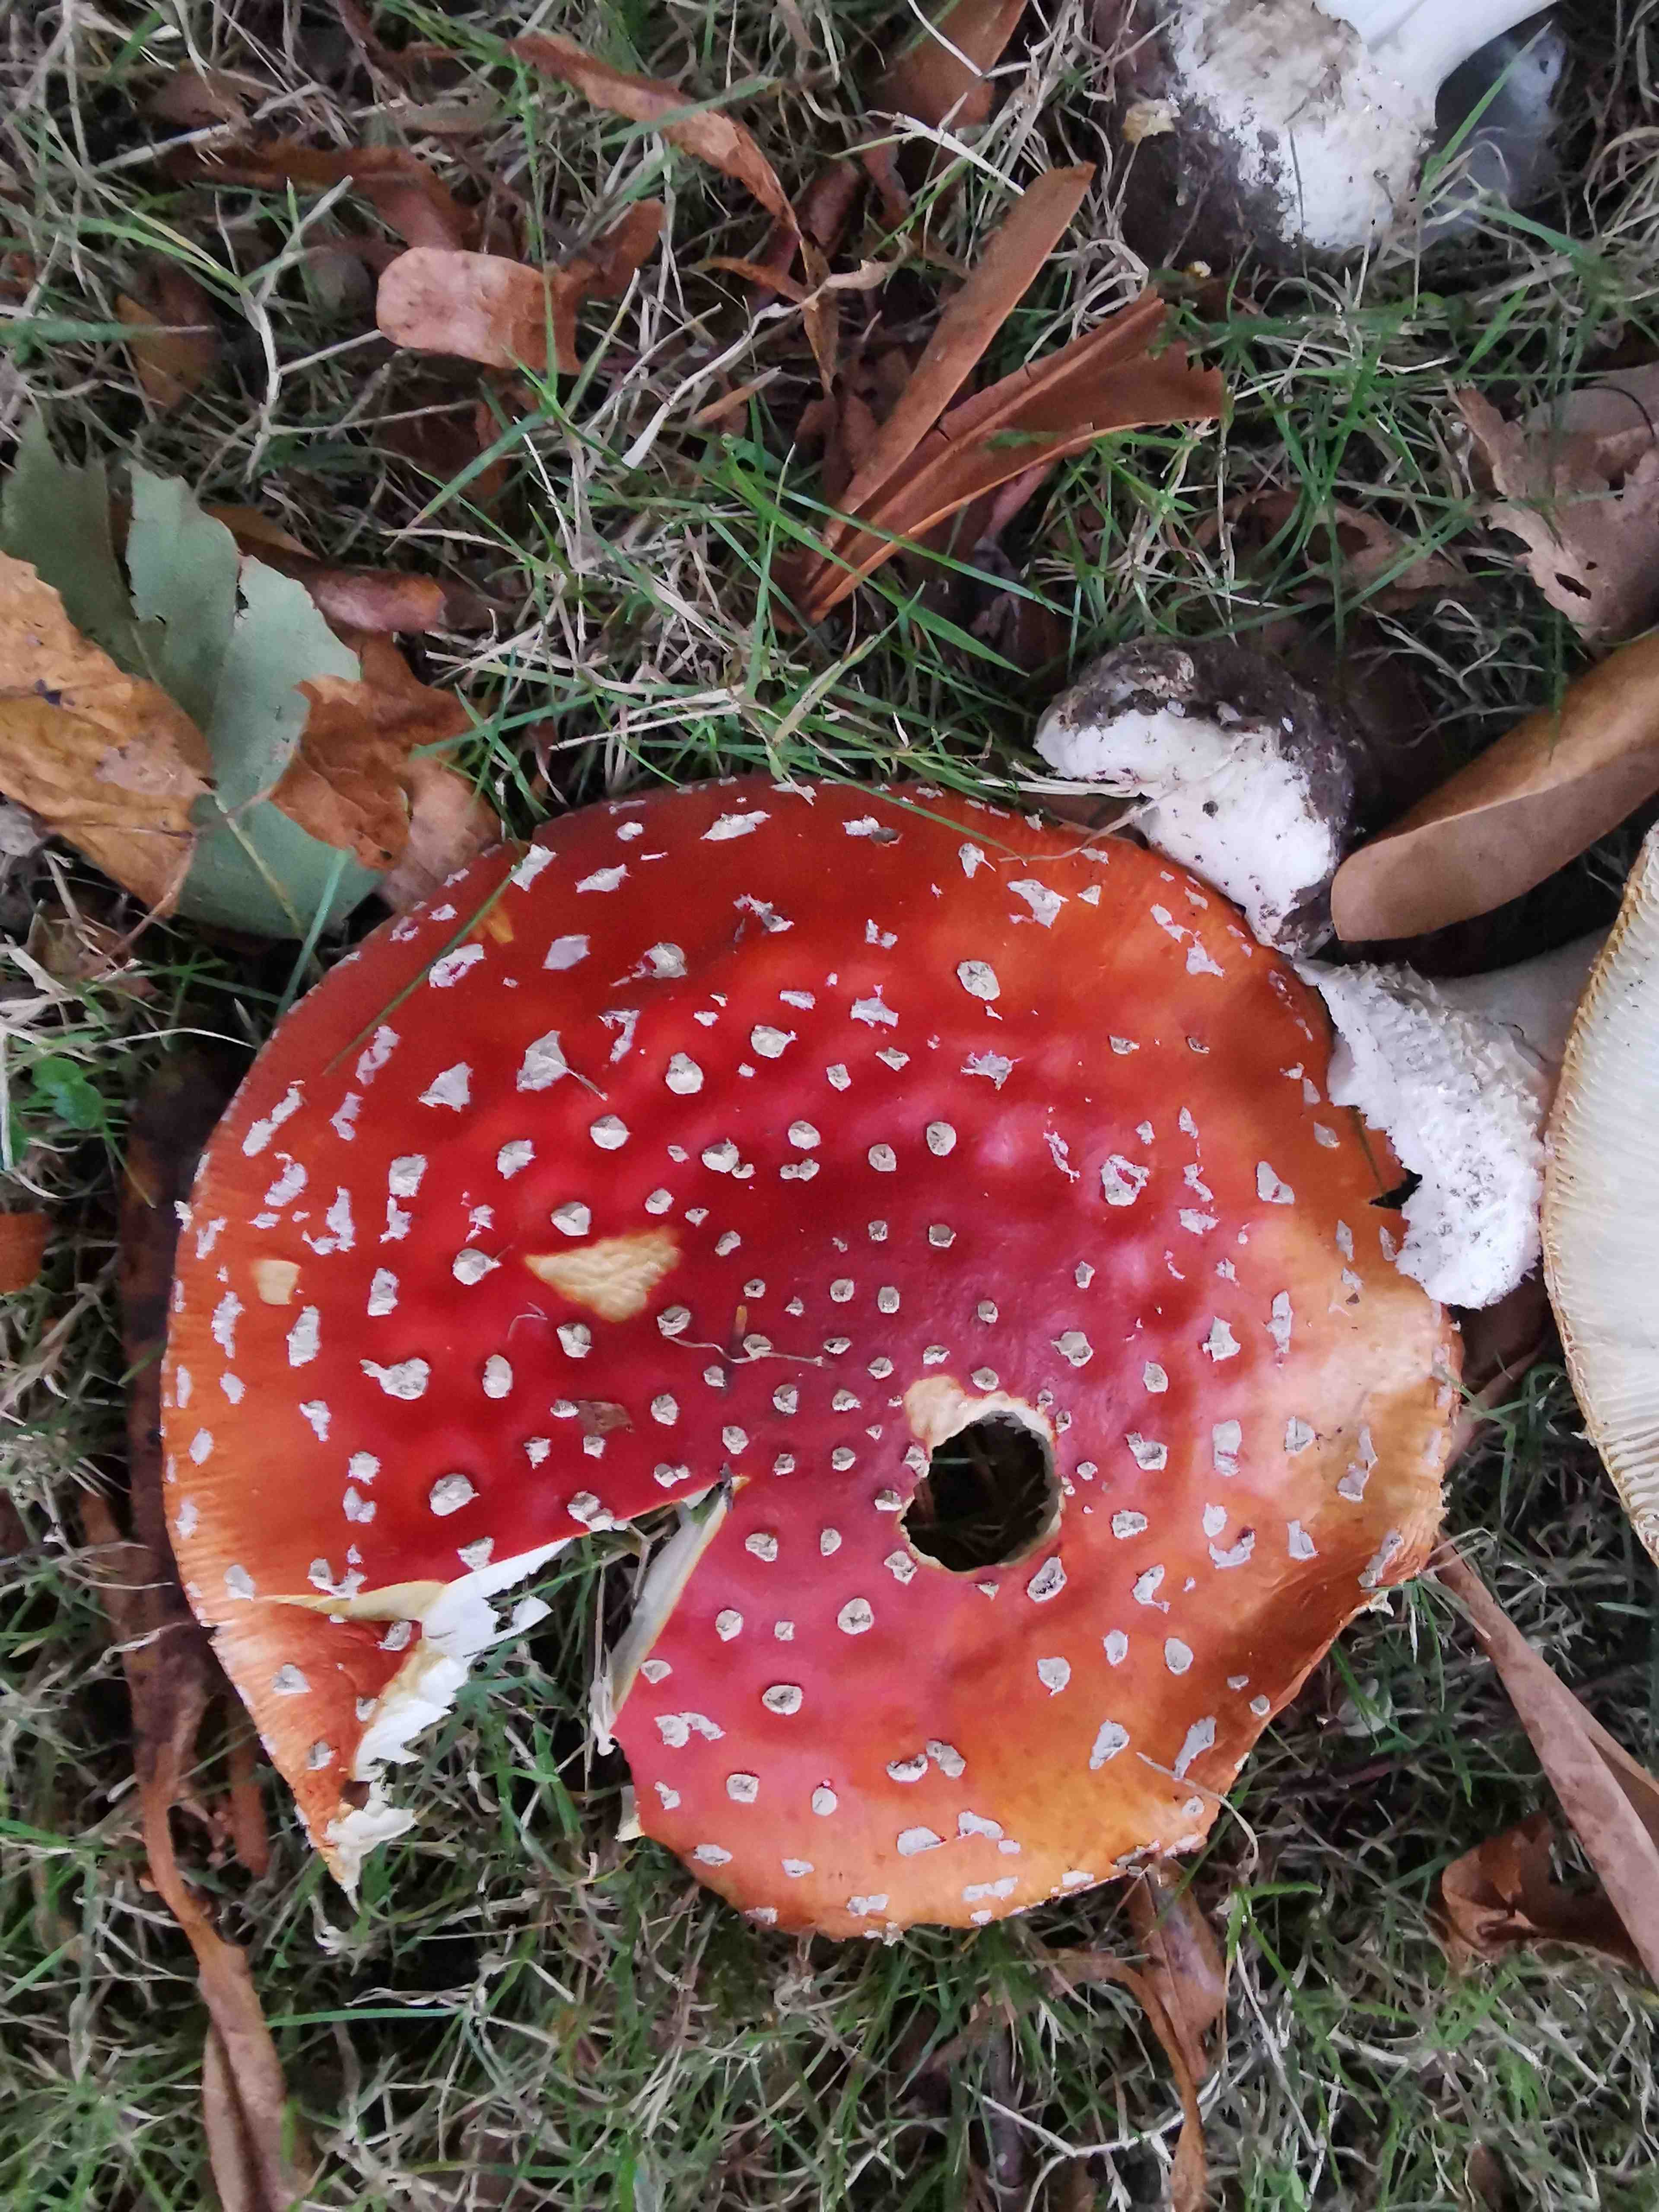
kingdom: Fungi
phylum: Basidiomycota
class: Agaricomycetes
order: Agaricales
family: Amanitaceae
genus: Amanita
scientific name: Amanita muscaria
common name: rød fluesvamp
